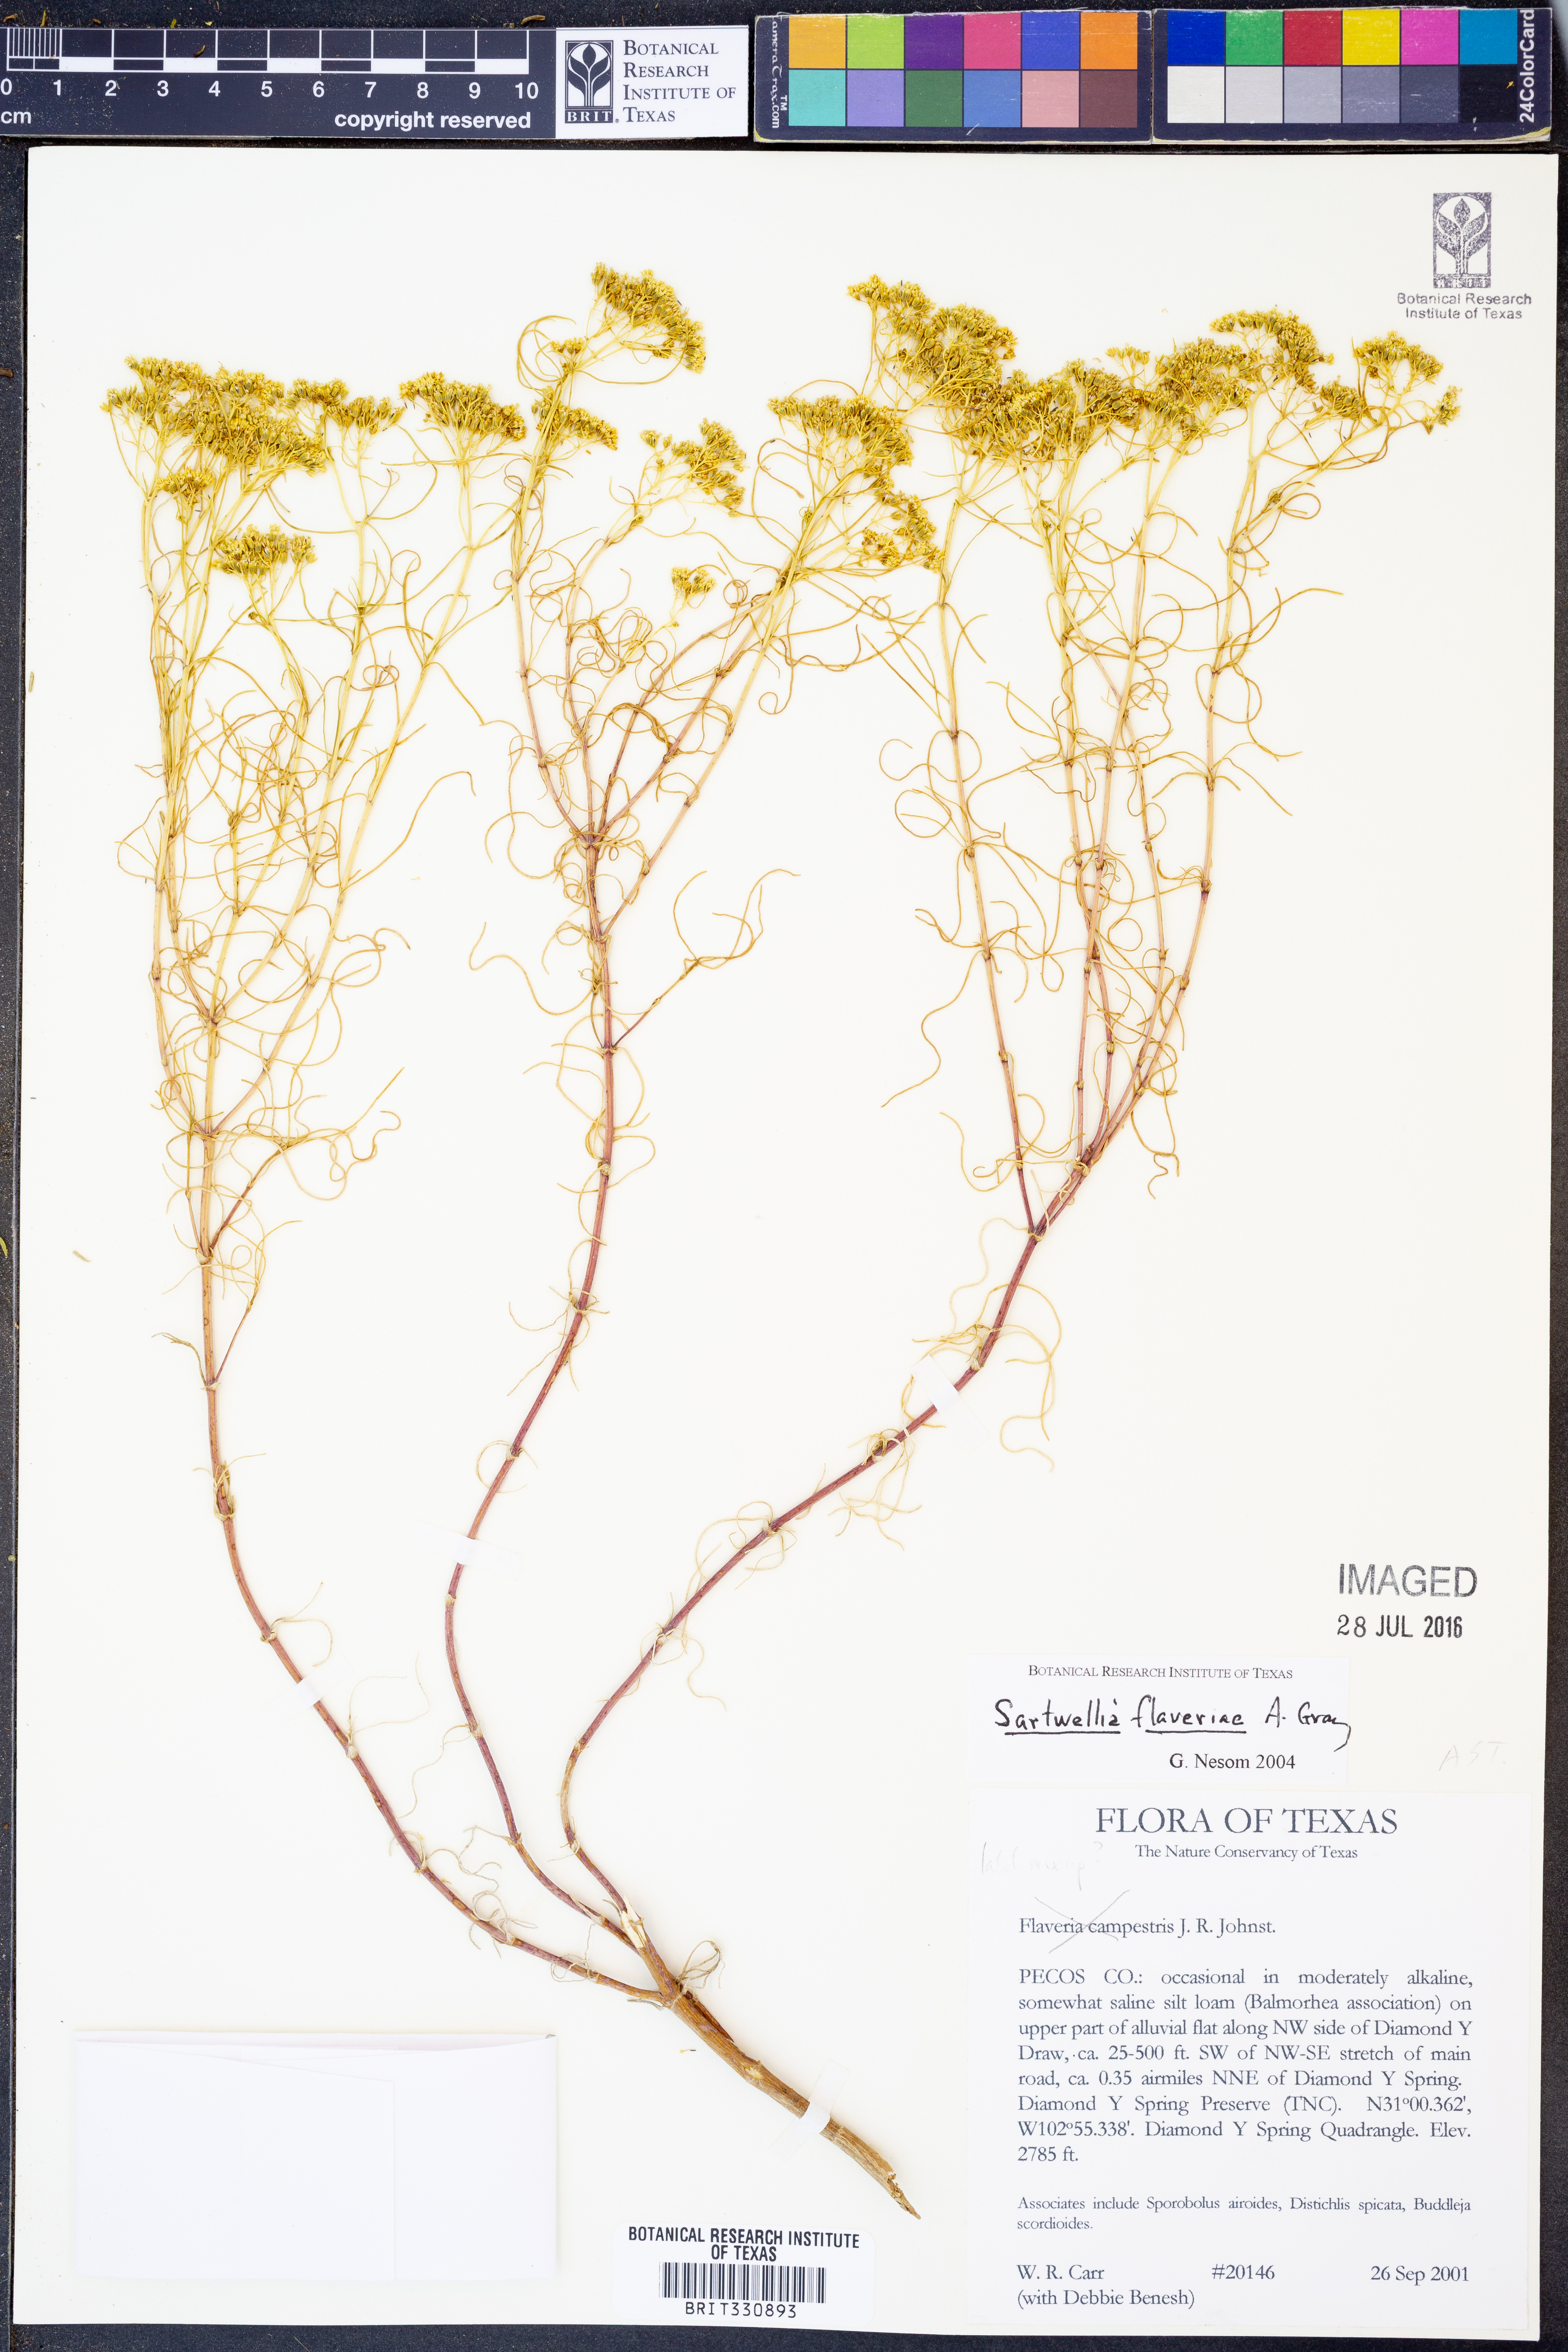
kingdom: Plantae
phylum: Tracheophyta
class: Magnoliopsida
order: Asterales
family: Asteraceae
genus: Sartwellia
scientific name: Sartwellia flaveriae
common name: Sartwellia
